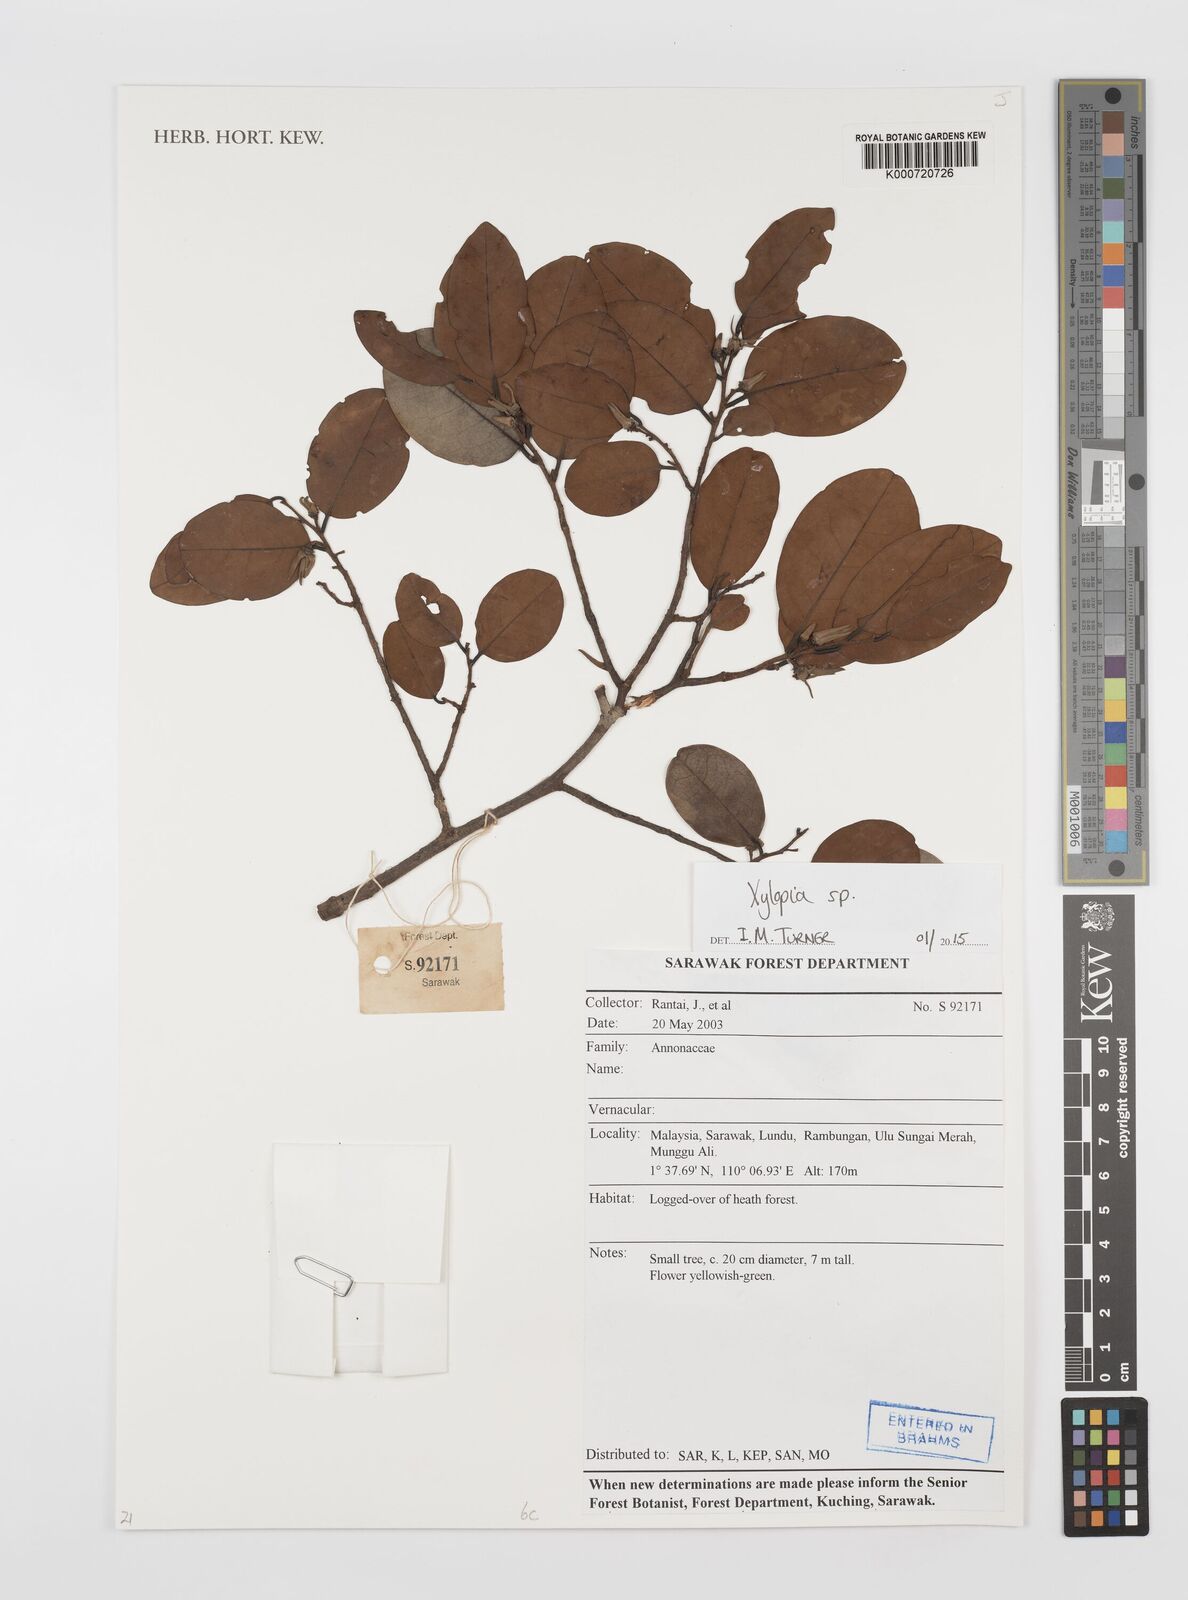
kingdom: Plantae
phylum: Tracheophyta
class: Magnoliopsida
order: Magnoliales
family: Annonaceae
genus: Xylopia
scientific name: Xylopia
